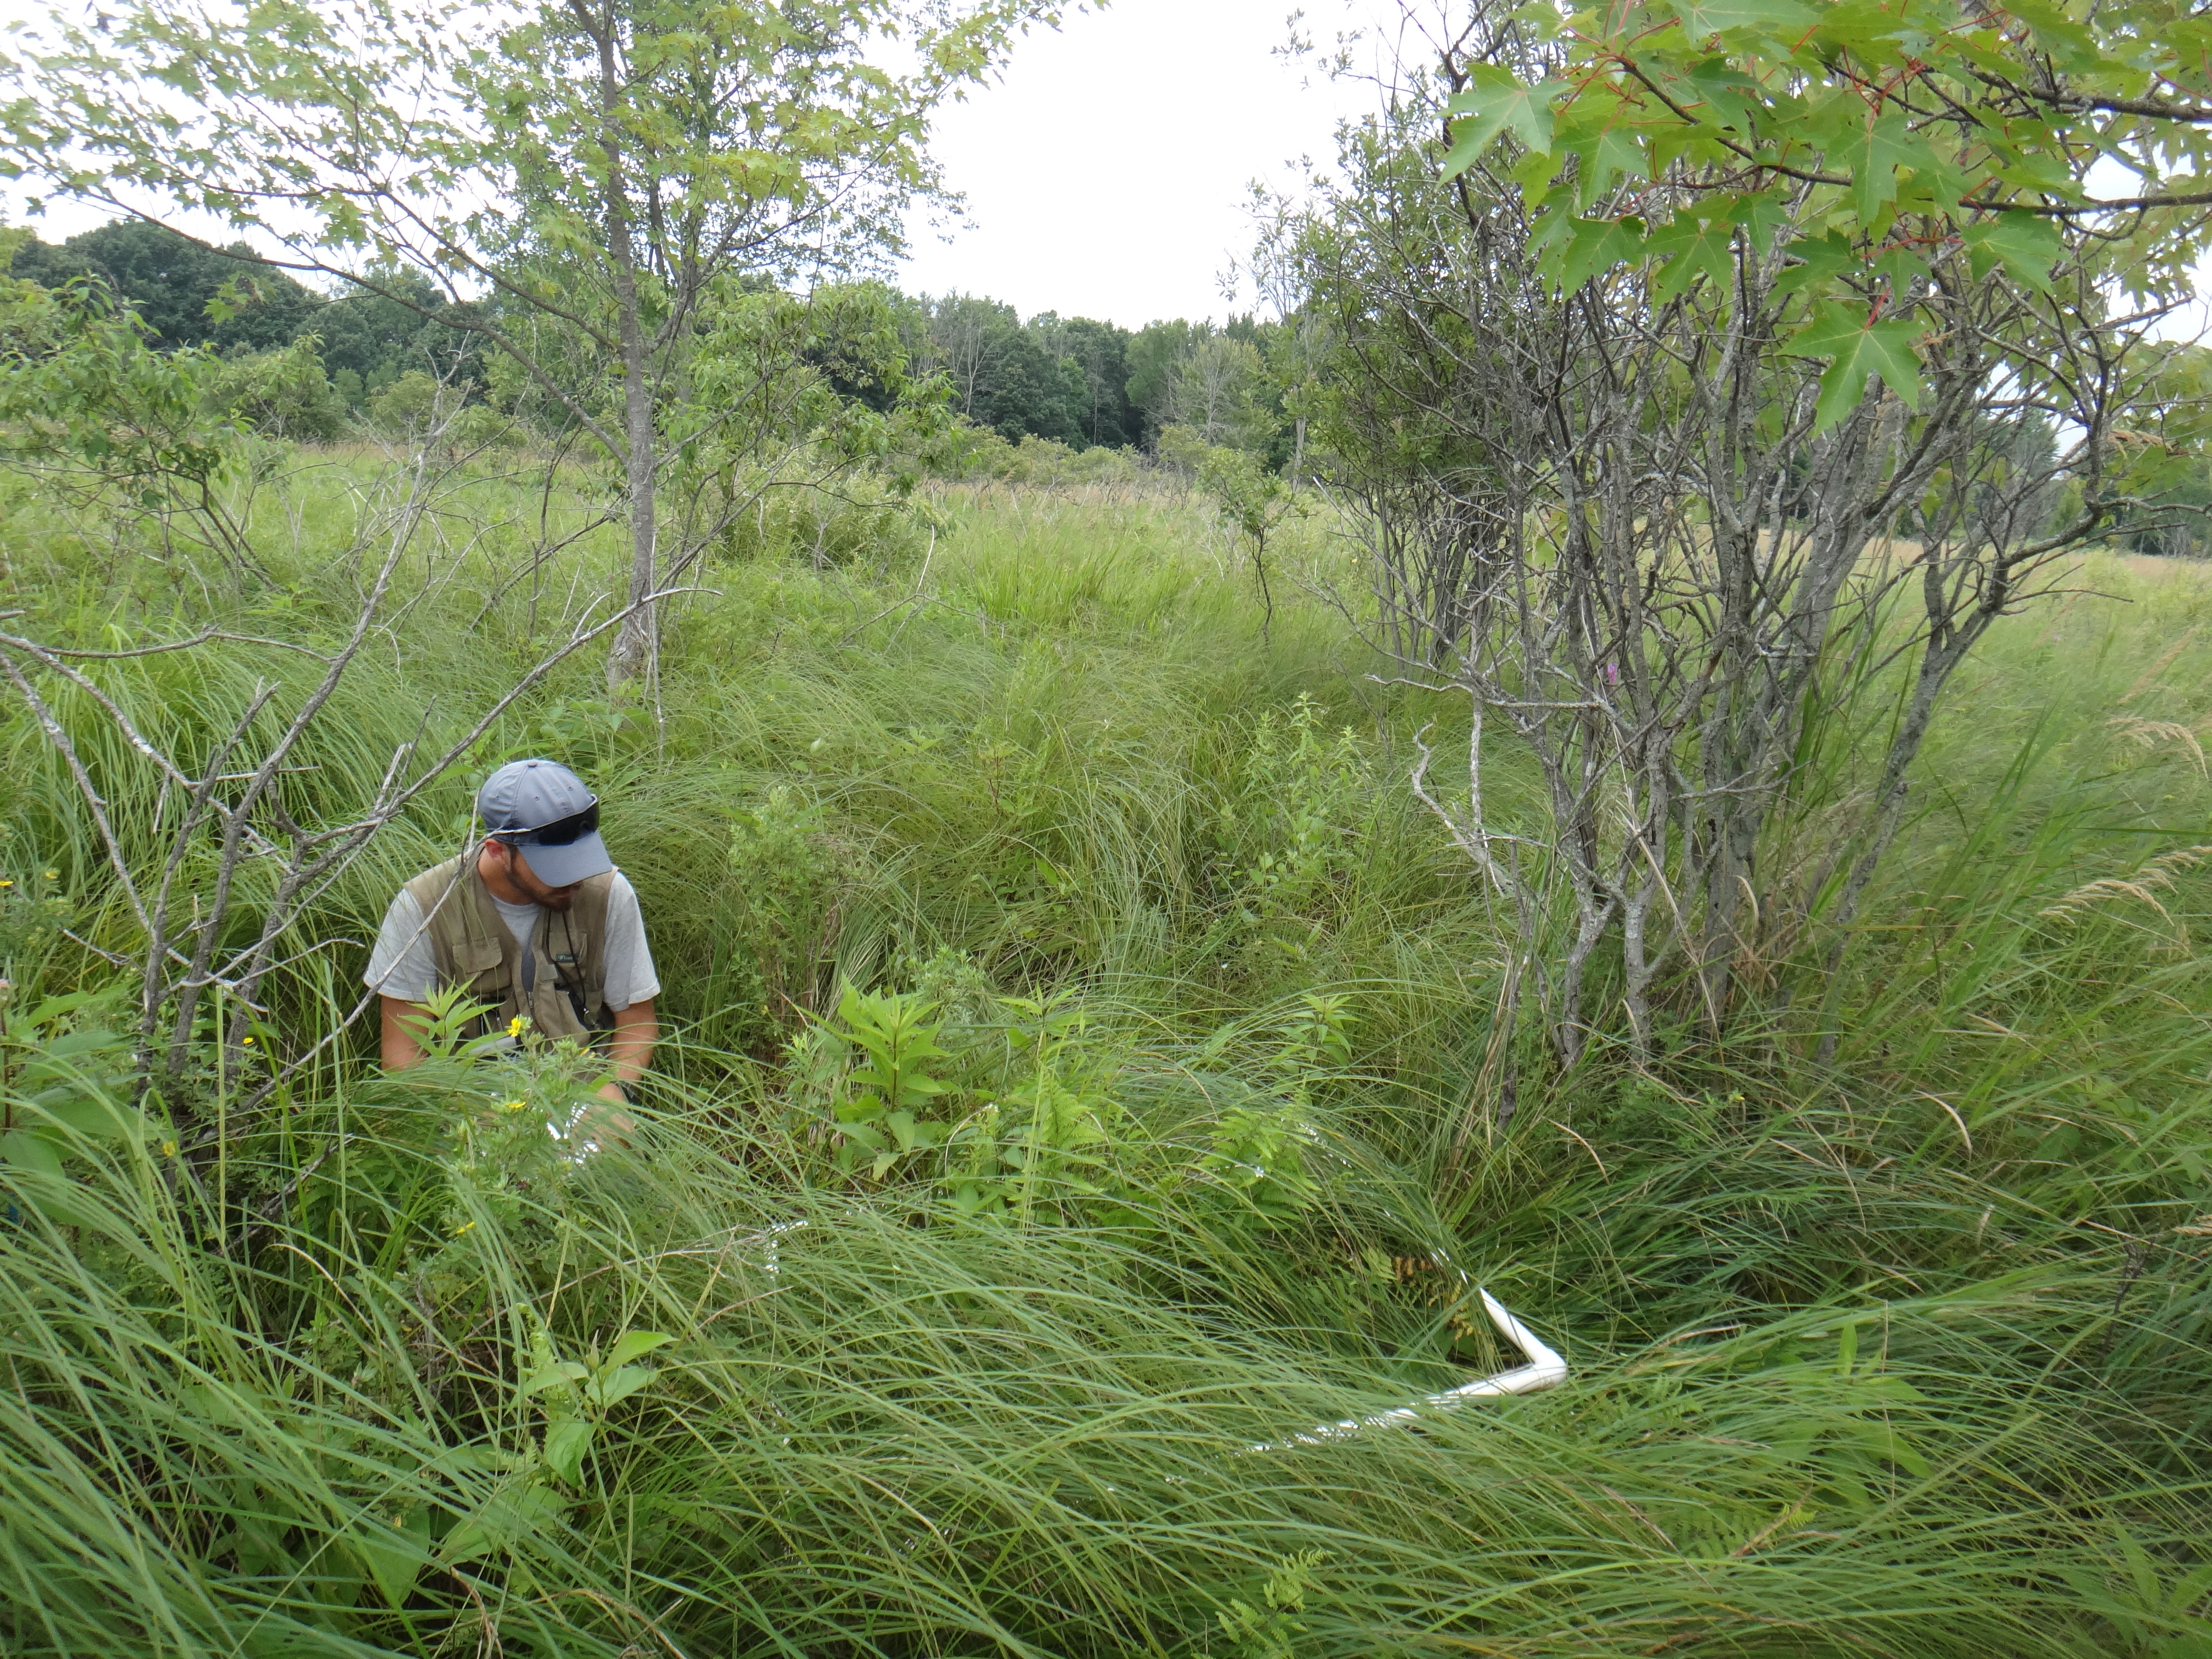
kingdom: Plantae
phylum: Tracheophyta
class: Liliopsida
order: Poales
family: Poaceae
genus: Muhlenbergia
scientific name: Muhlenbergia glomerata
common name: Bog muhly
